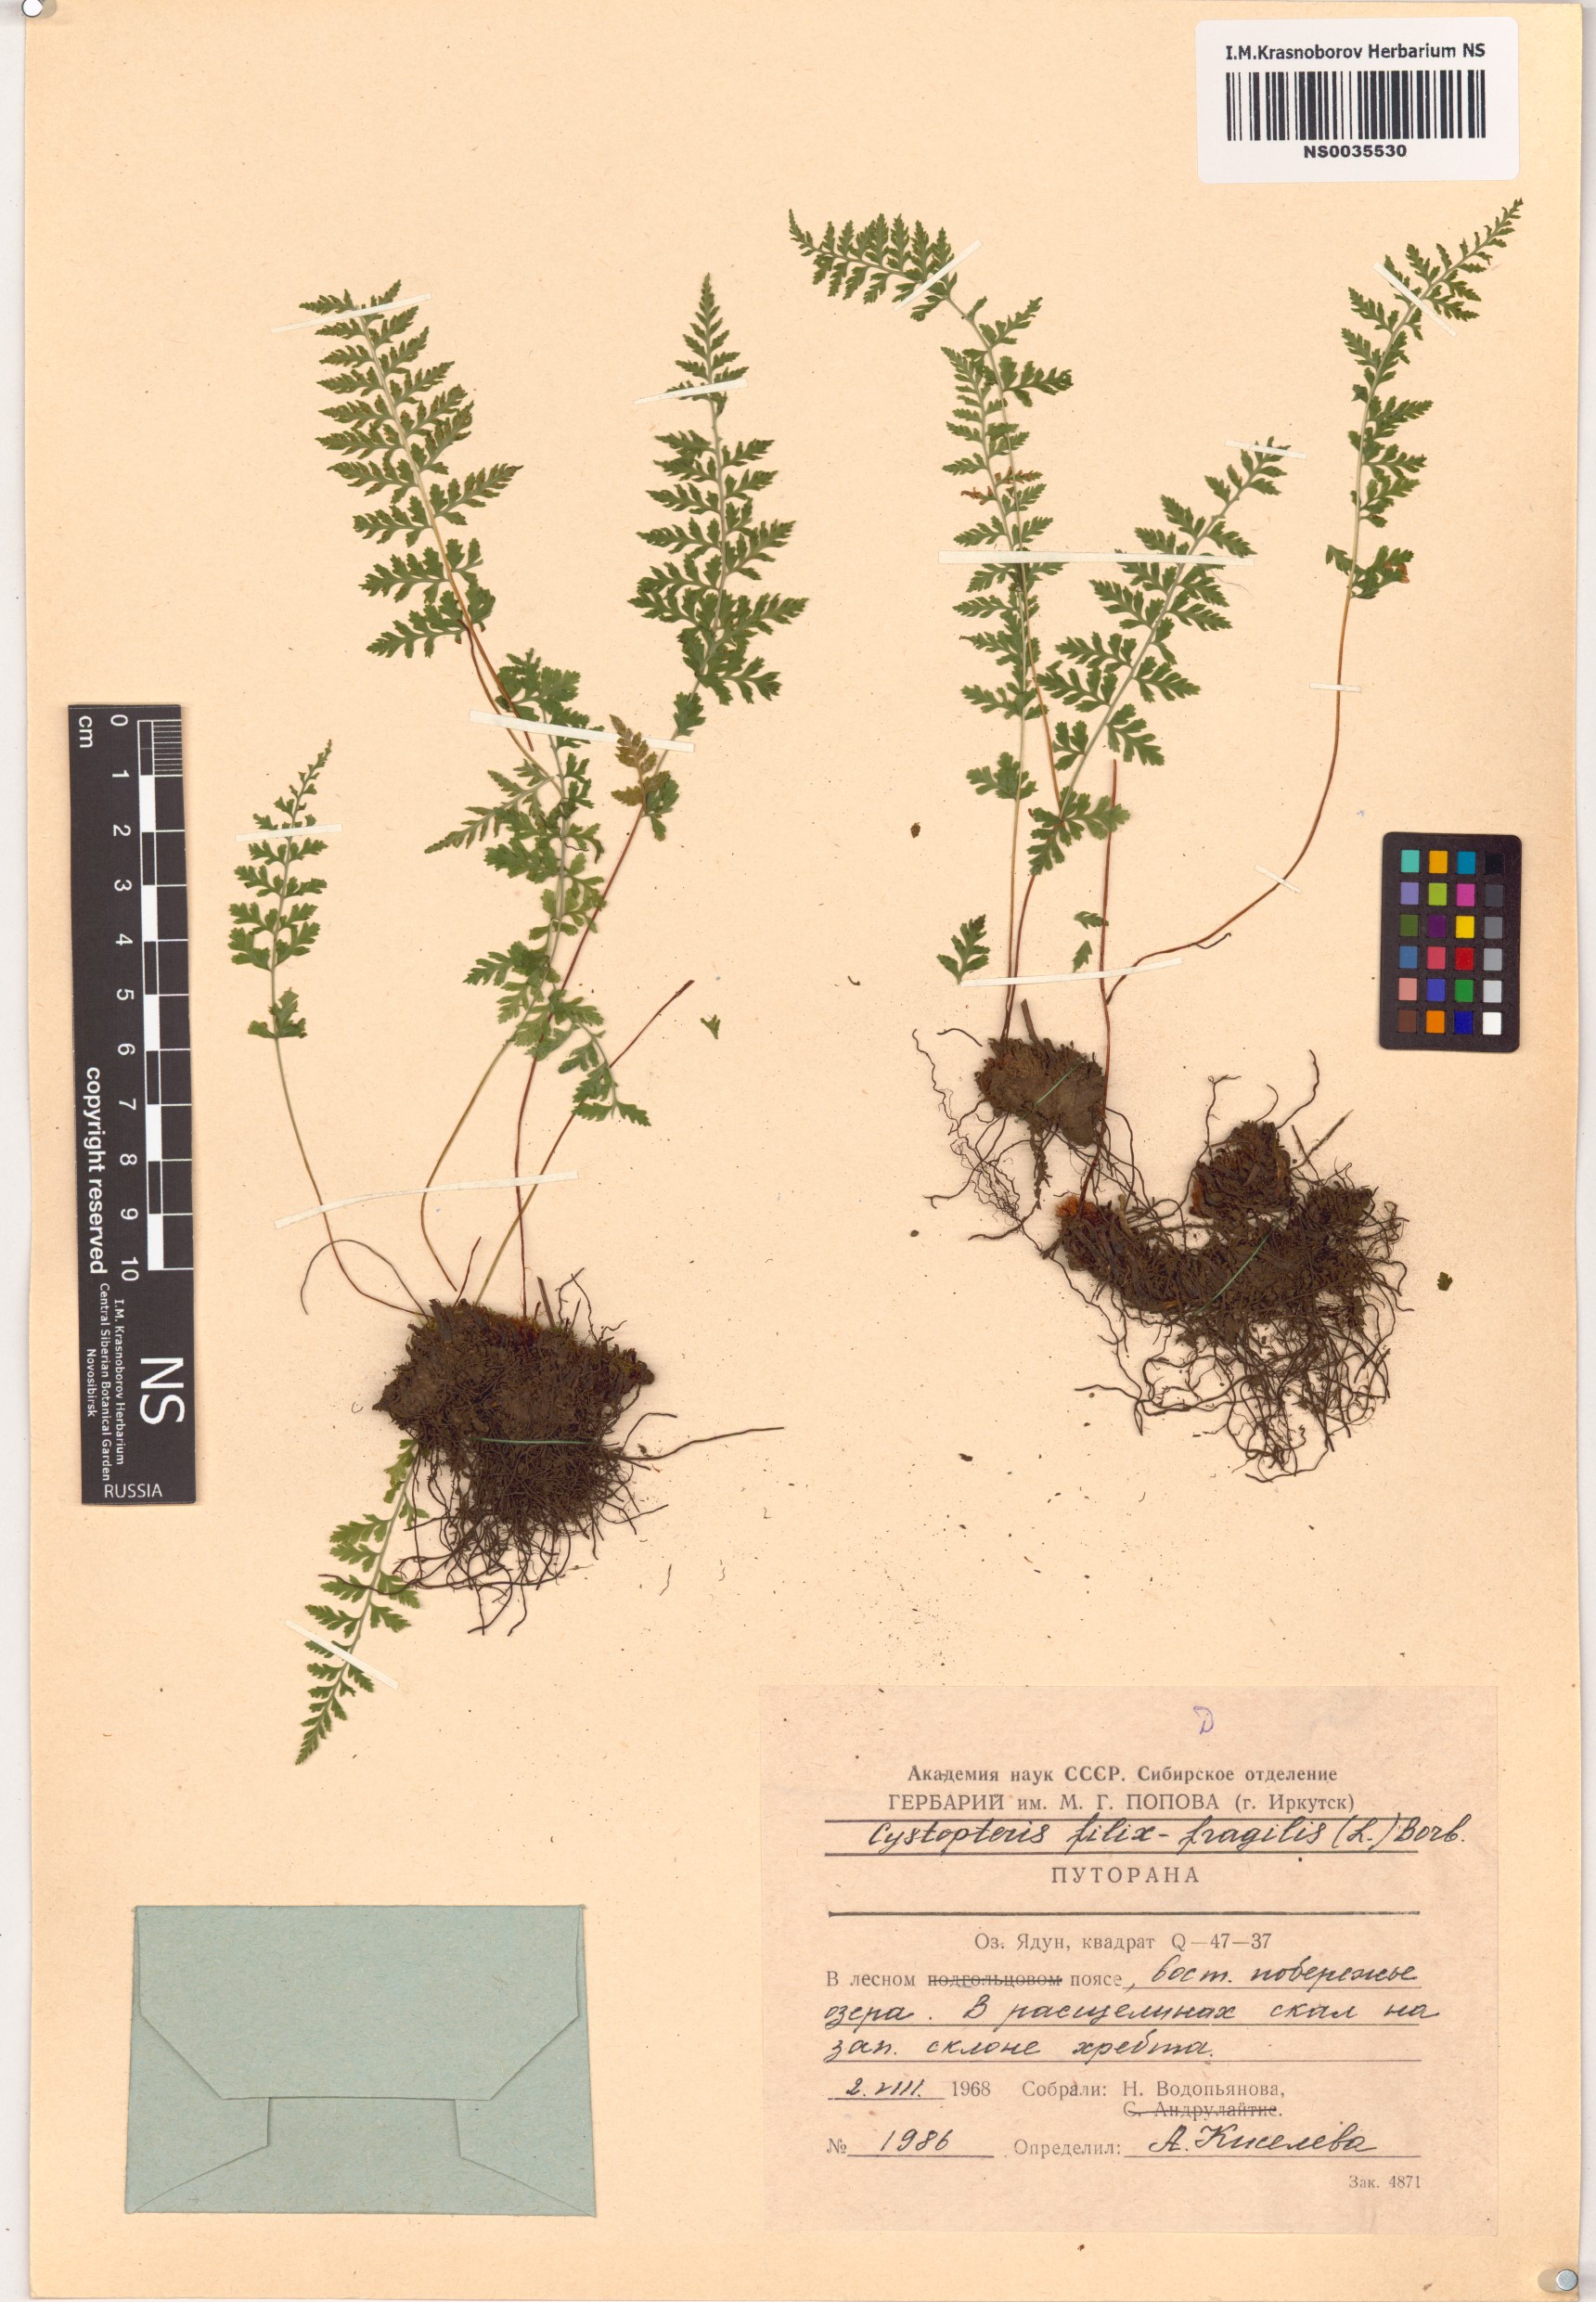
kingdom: Plantae
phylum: Tracheophyta
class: Polypodiopsida
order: Polypodiales
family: Cystopteridaceae
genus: Cystopteris
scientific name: Cystopteris fragilis
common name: Brittle bladder fern
